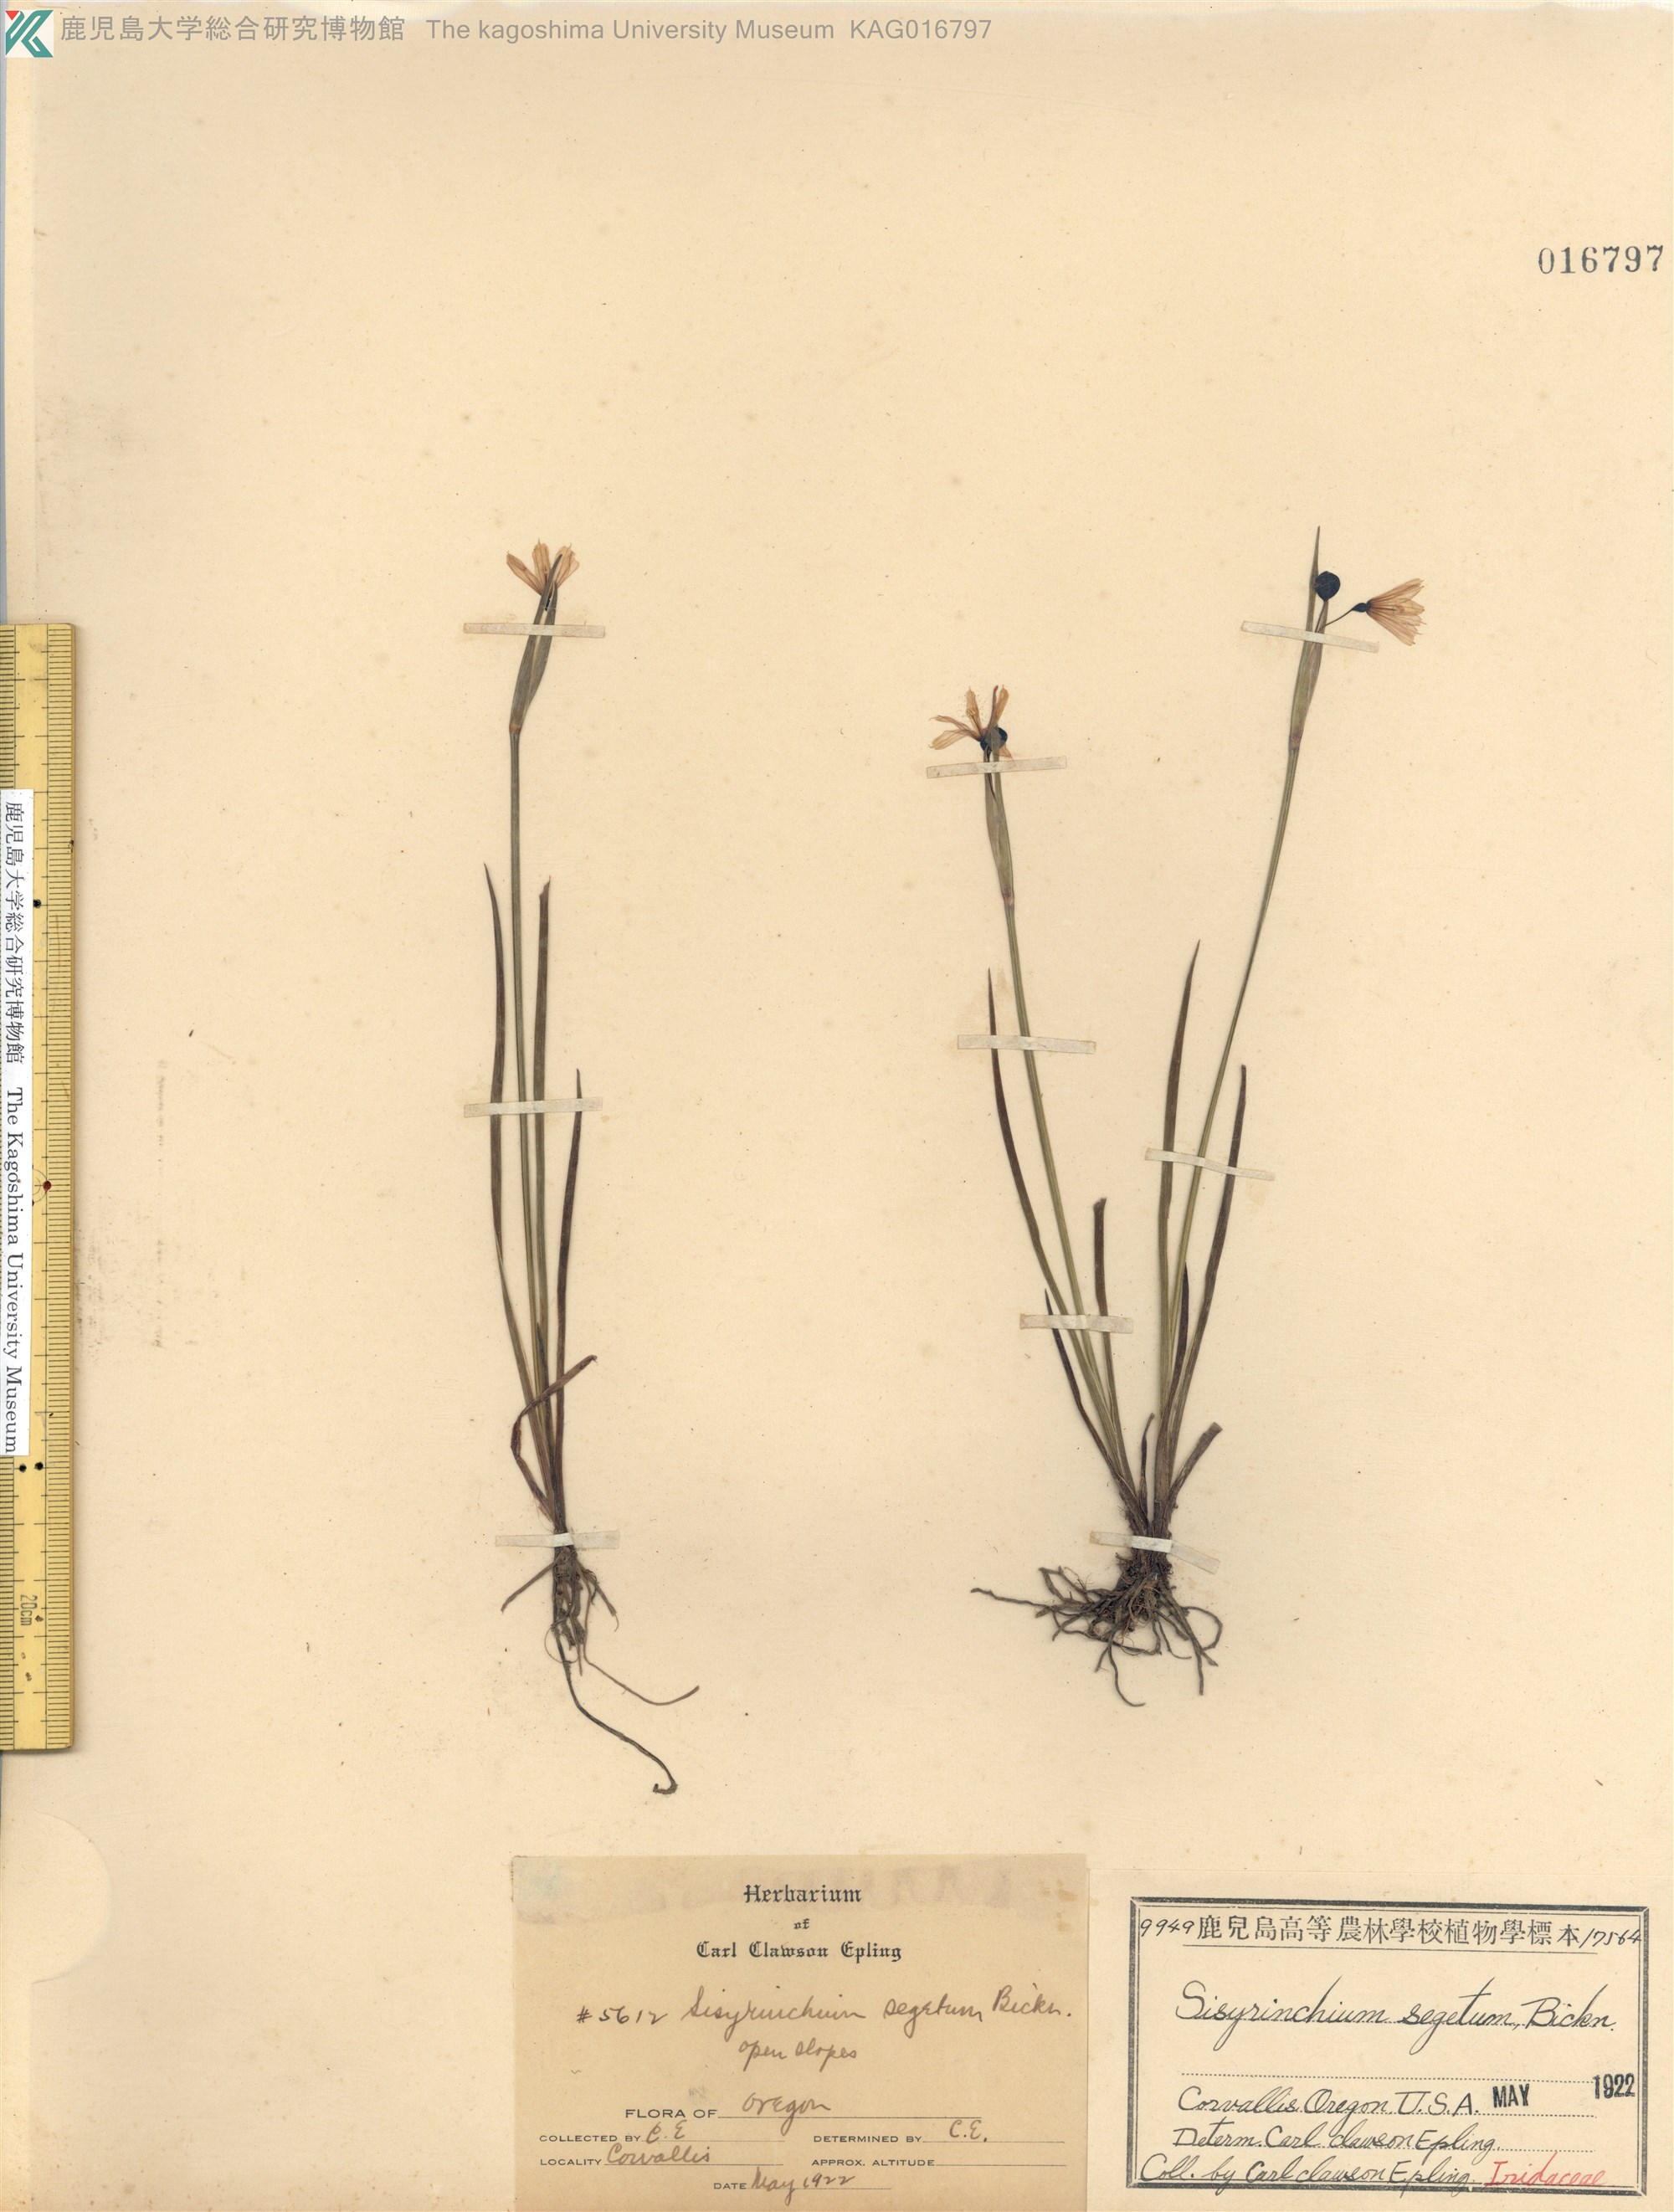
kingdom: Plantae
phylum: Tracheophyta
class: Liliopsida
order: Asparagales
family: Iridaceae
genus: Sisyrinchium
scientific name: Sisyrinchium idahoense
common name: Idaho blue-eyed-grass
